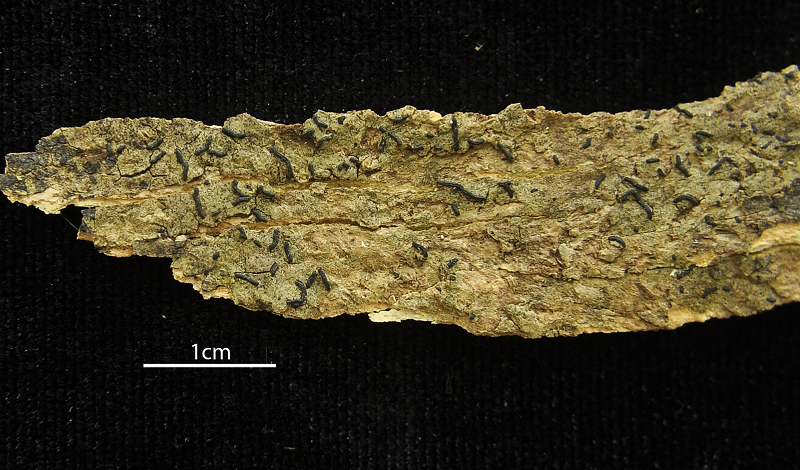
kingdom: Fungi
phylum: Ascomycota
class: Arthoniomycetes
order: Arthoniales
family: Opegraphaceae
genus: Opegrapha
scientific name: Opegrapha
